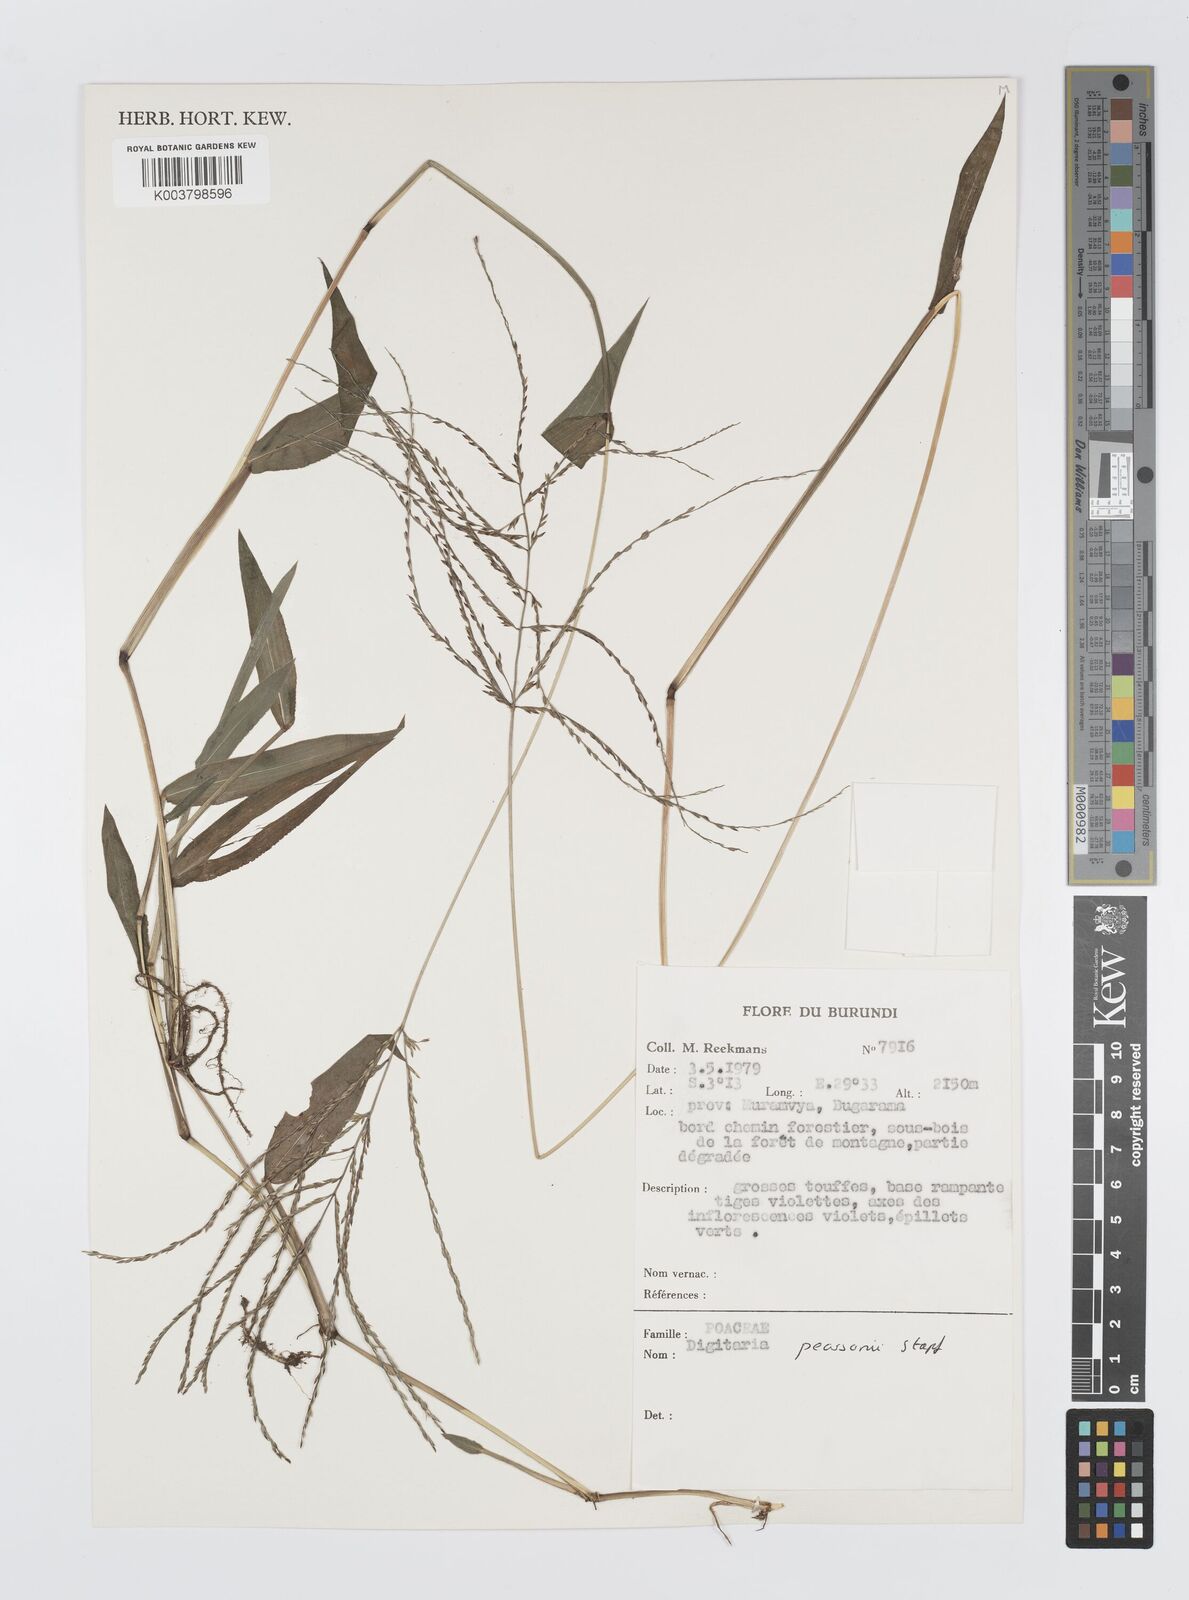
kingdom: Plantae
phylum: Tracheophyta
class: Liliopsida
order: Poales
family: Poaceae
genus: Digitaria
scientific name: Digitaria pearsonii
